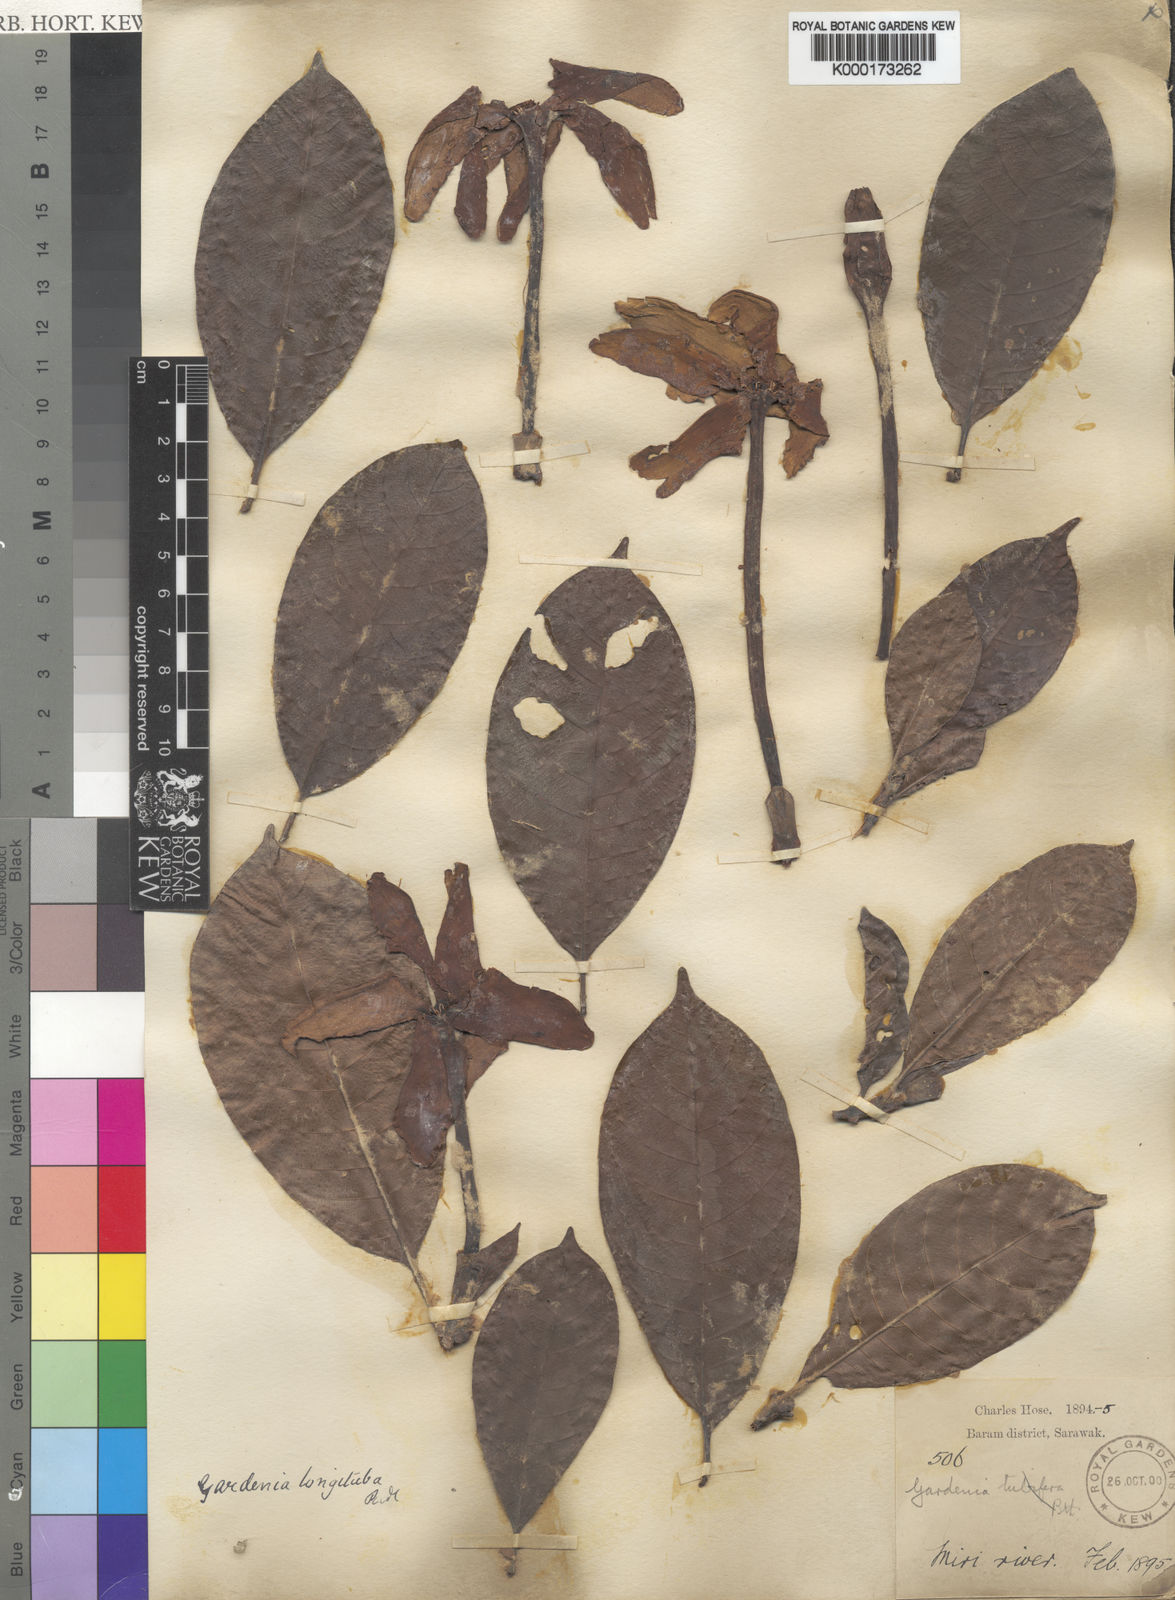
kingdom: Plantae
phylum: Tracheophyta
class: Magnoliopsida
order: Gentianales
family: Rubiaceae
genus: Gardenia
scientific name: Gardenia elata
